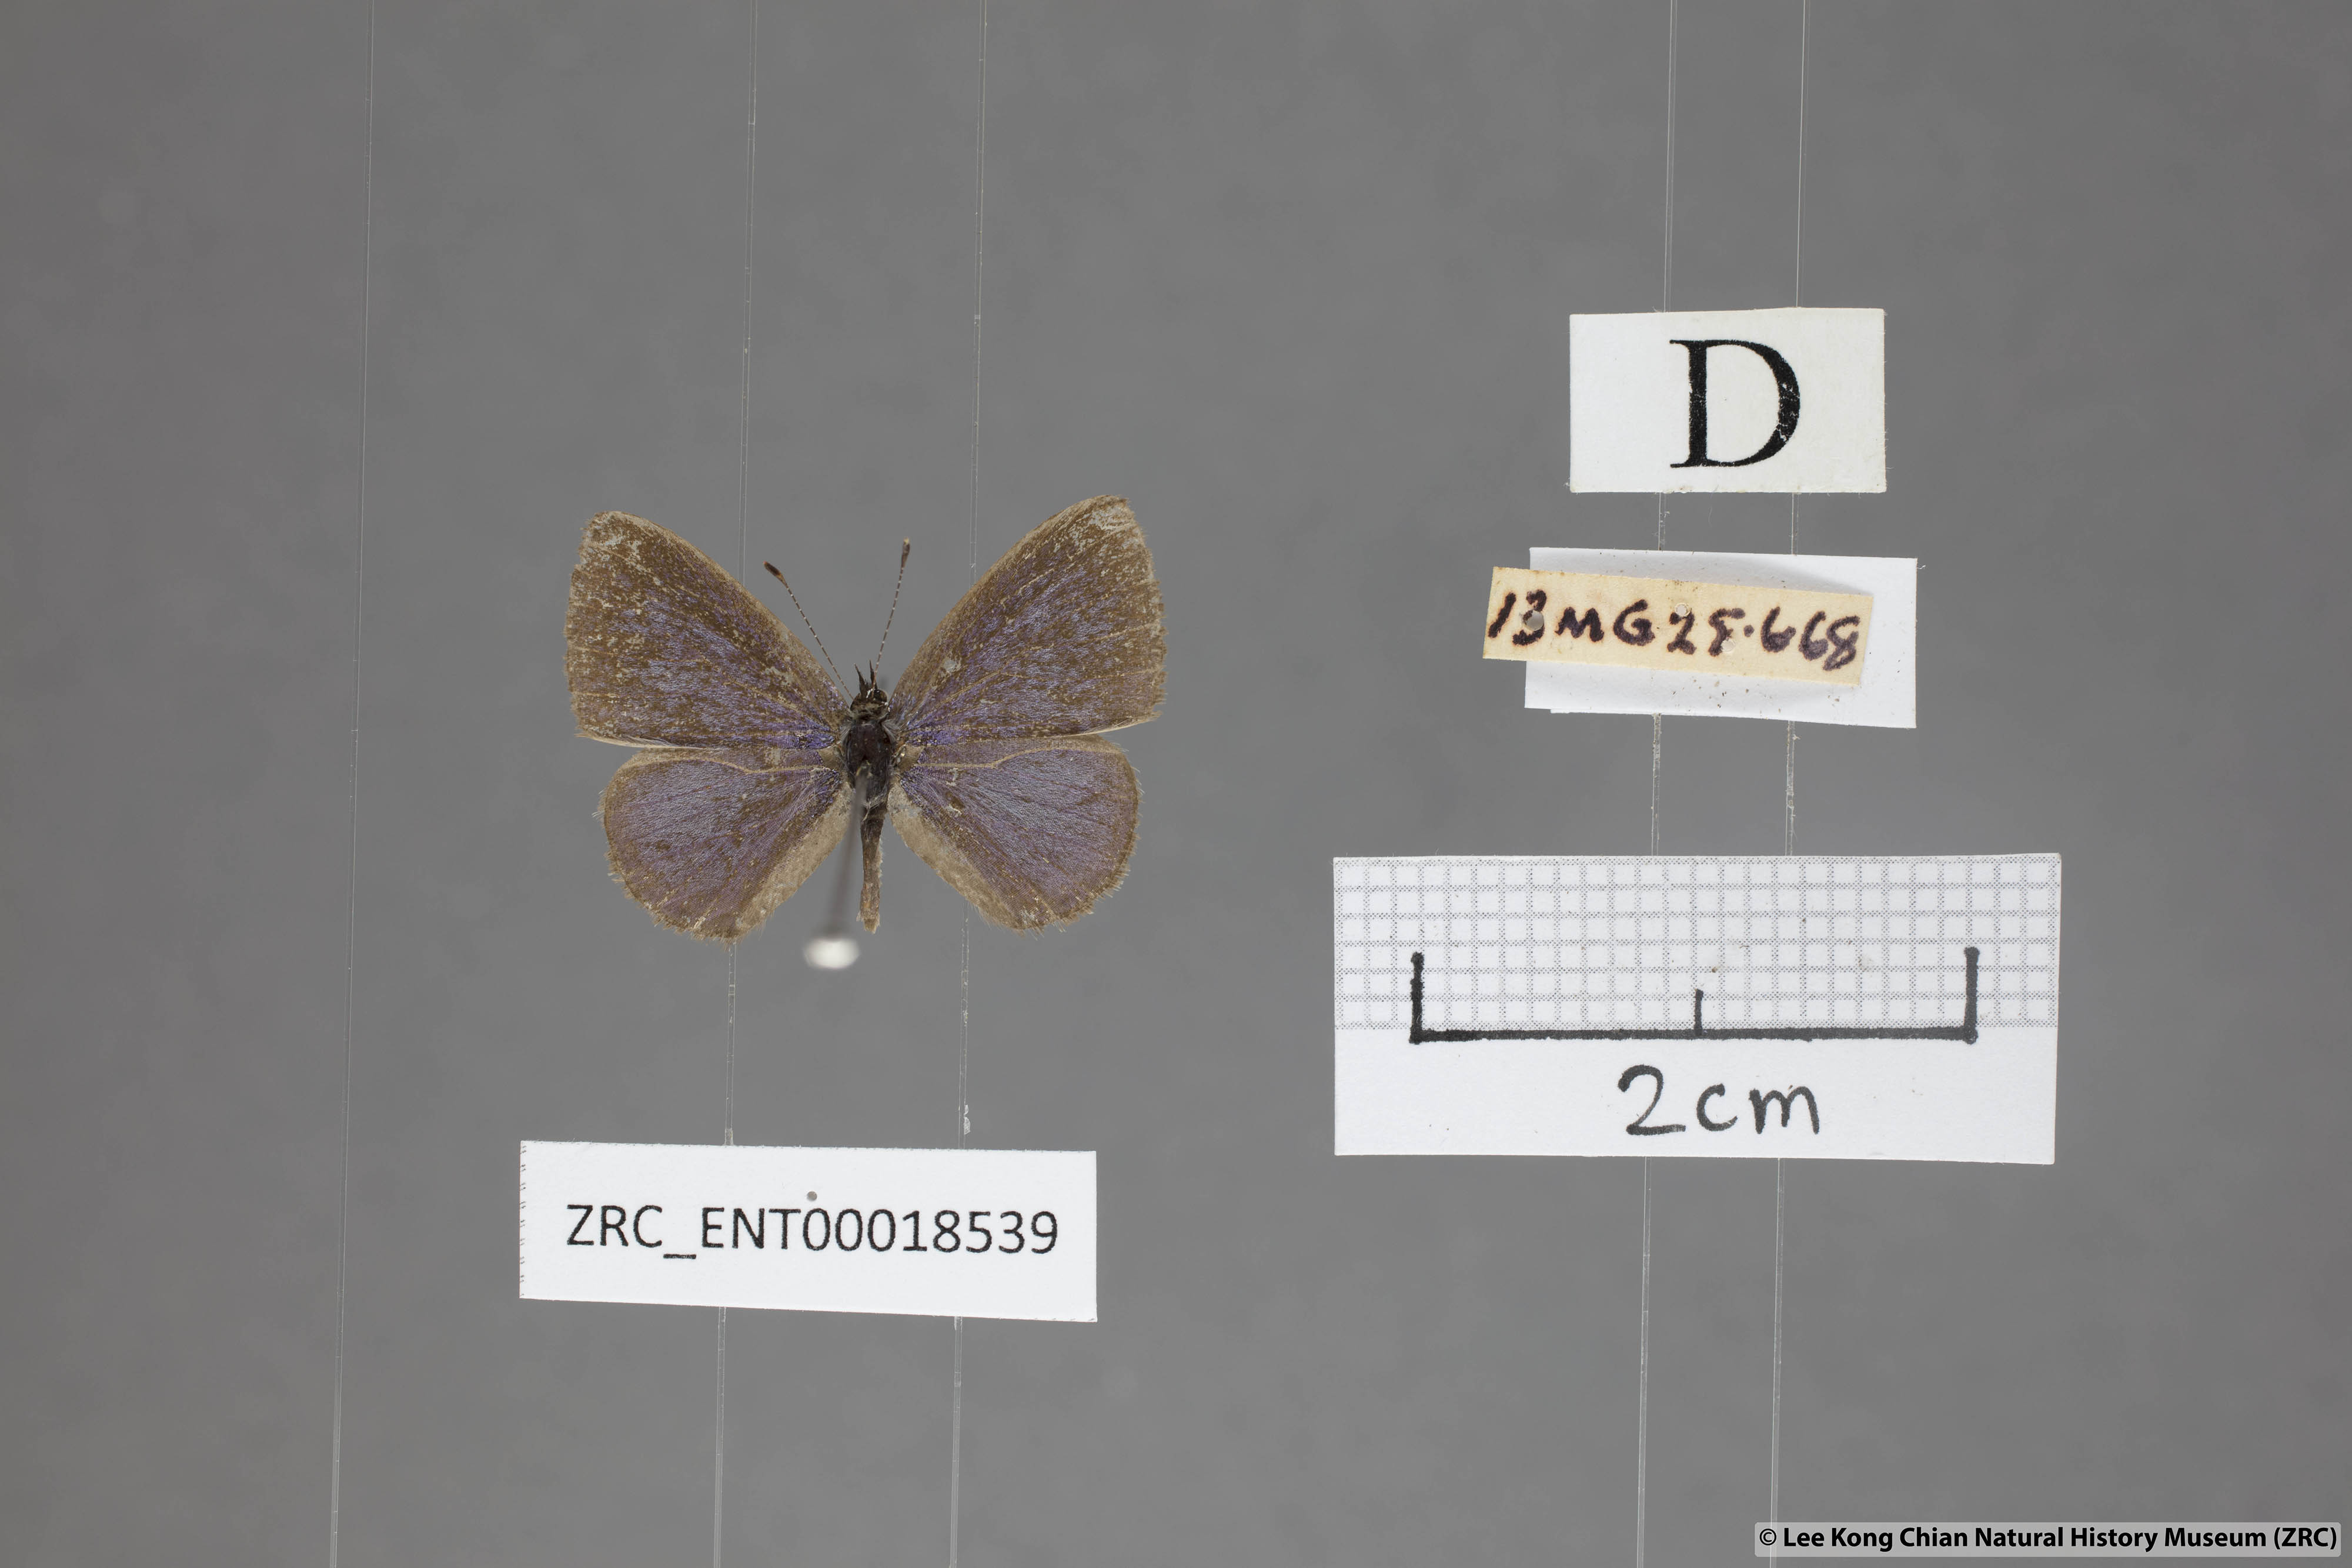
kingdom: Animalia
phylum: Arthropoda
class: Insecta
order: Lepidoptera
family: Lycaenidae
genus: Petrelaea
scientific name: Petrelaea dana
